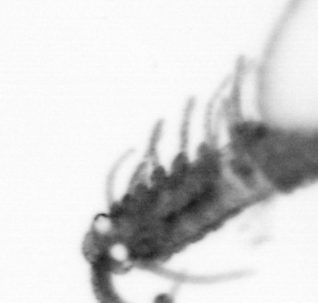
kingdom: Animalia
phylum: Annelida
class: Polychaeta
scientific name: Polychaeta
